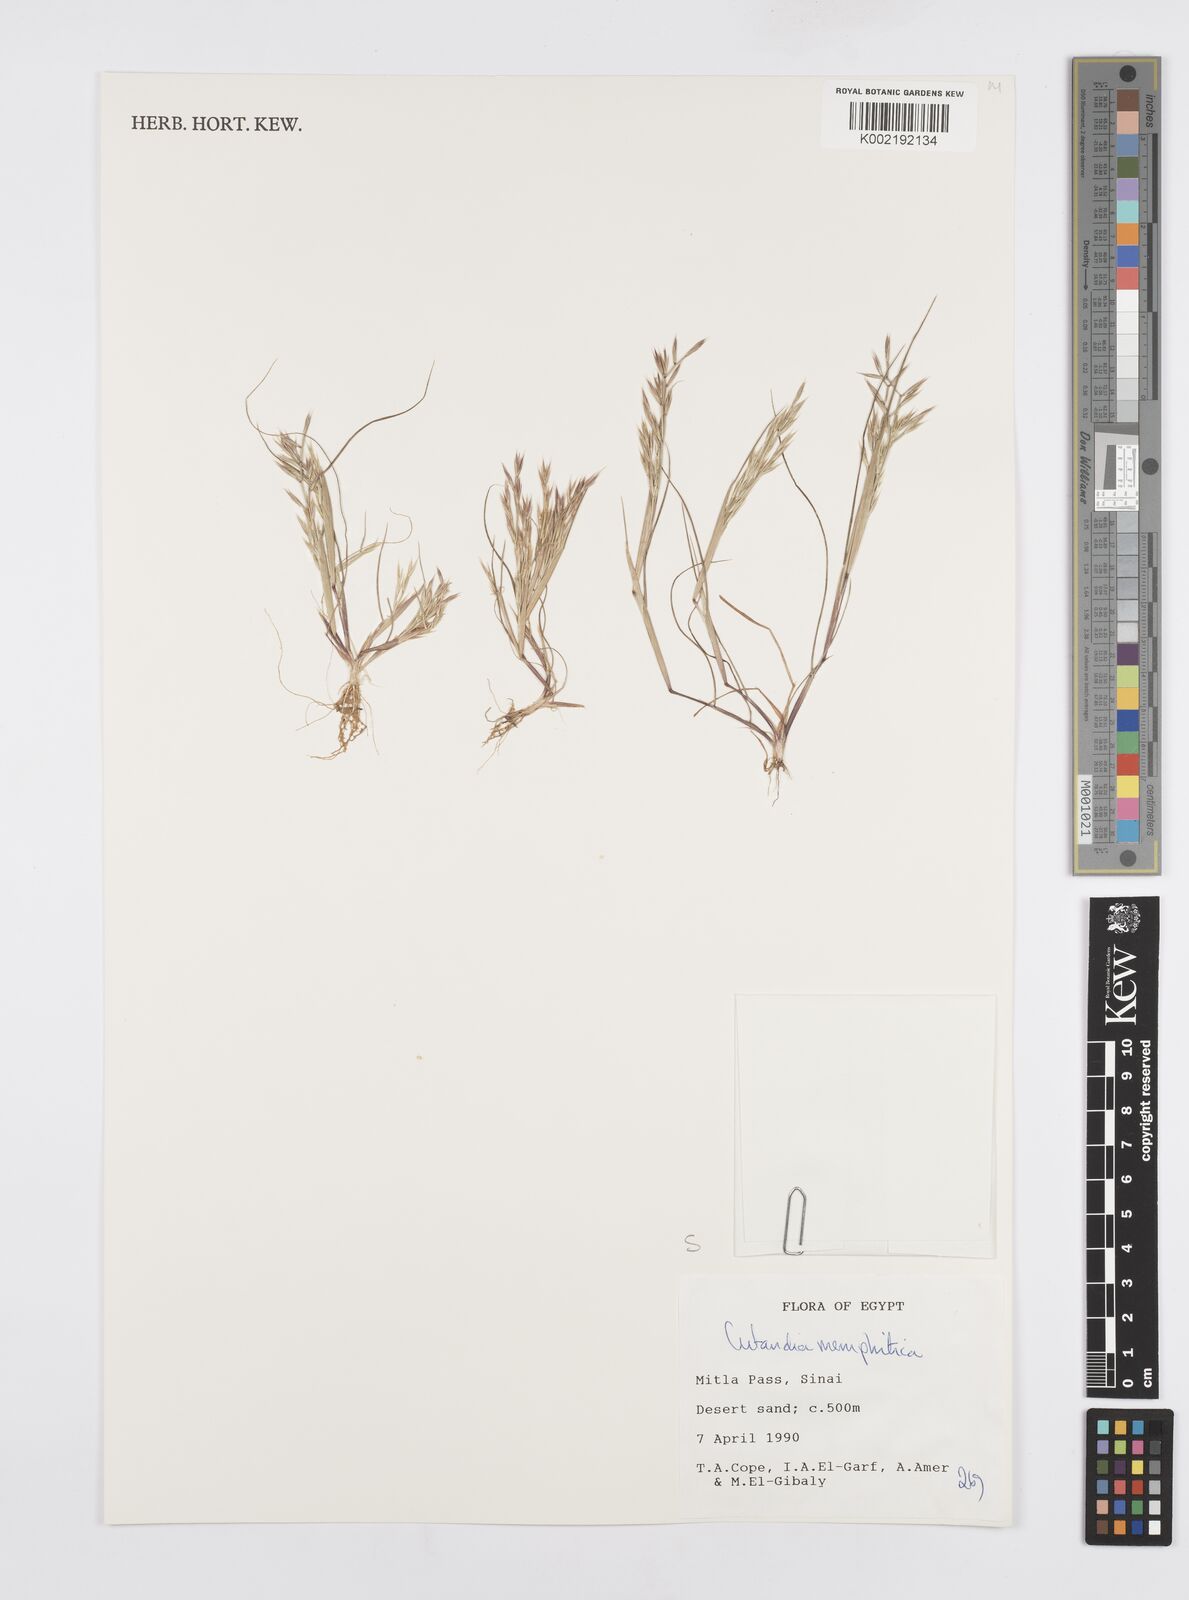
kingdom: Plantae
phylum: Tracheophyta
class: Liliopsida
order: Poales
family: Poaceae
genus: Cutandia
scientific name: Cutandia memphitica
